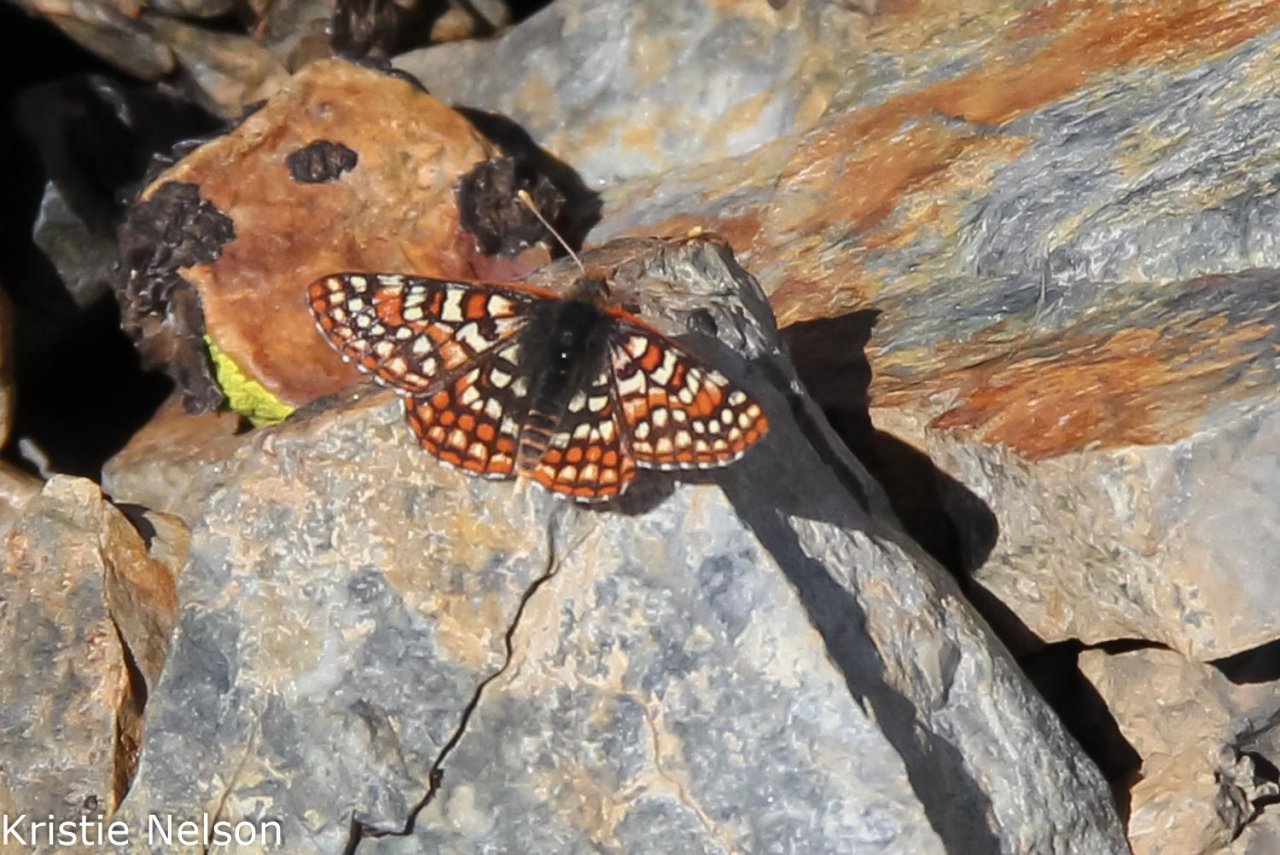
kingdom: Animalia
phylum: Arthropoda
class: Insecta
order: Lepidoptera
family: Nymphalidae
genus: Occidryas
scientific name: Occidryas editha
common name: Edith's Checkerspot
